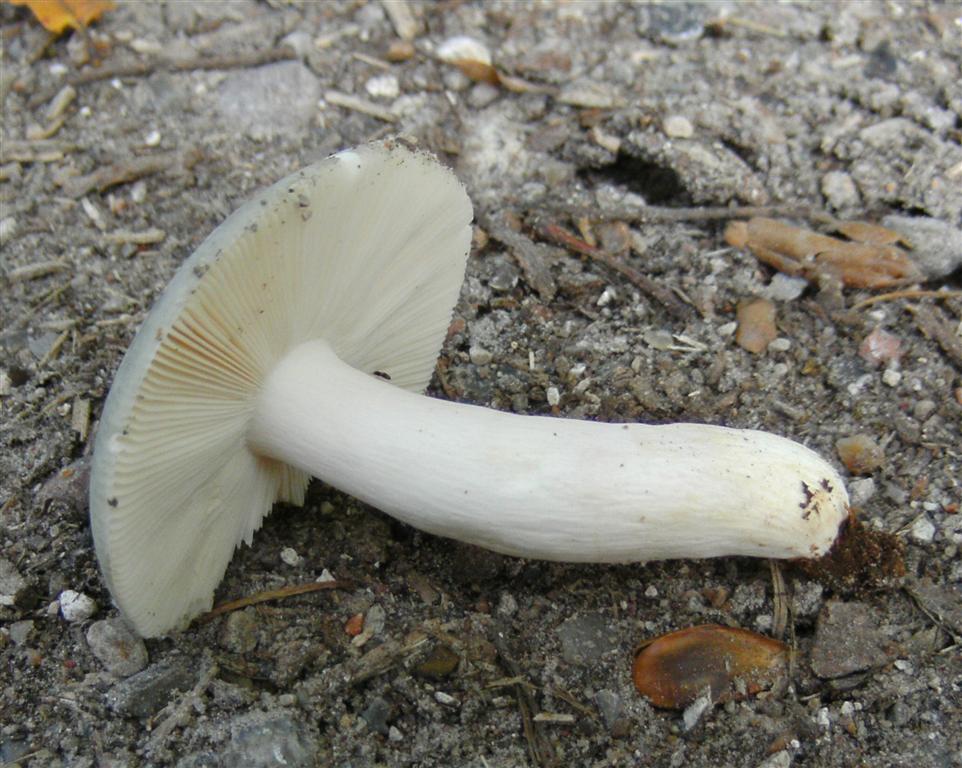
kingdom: Fungi
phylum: Basidiomycota
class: Agaricomycetes
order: Russulales
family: Russulaceae
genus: Russula
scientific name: Russula
